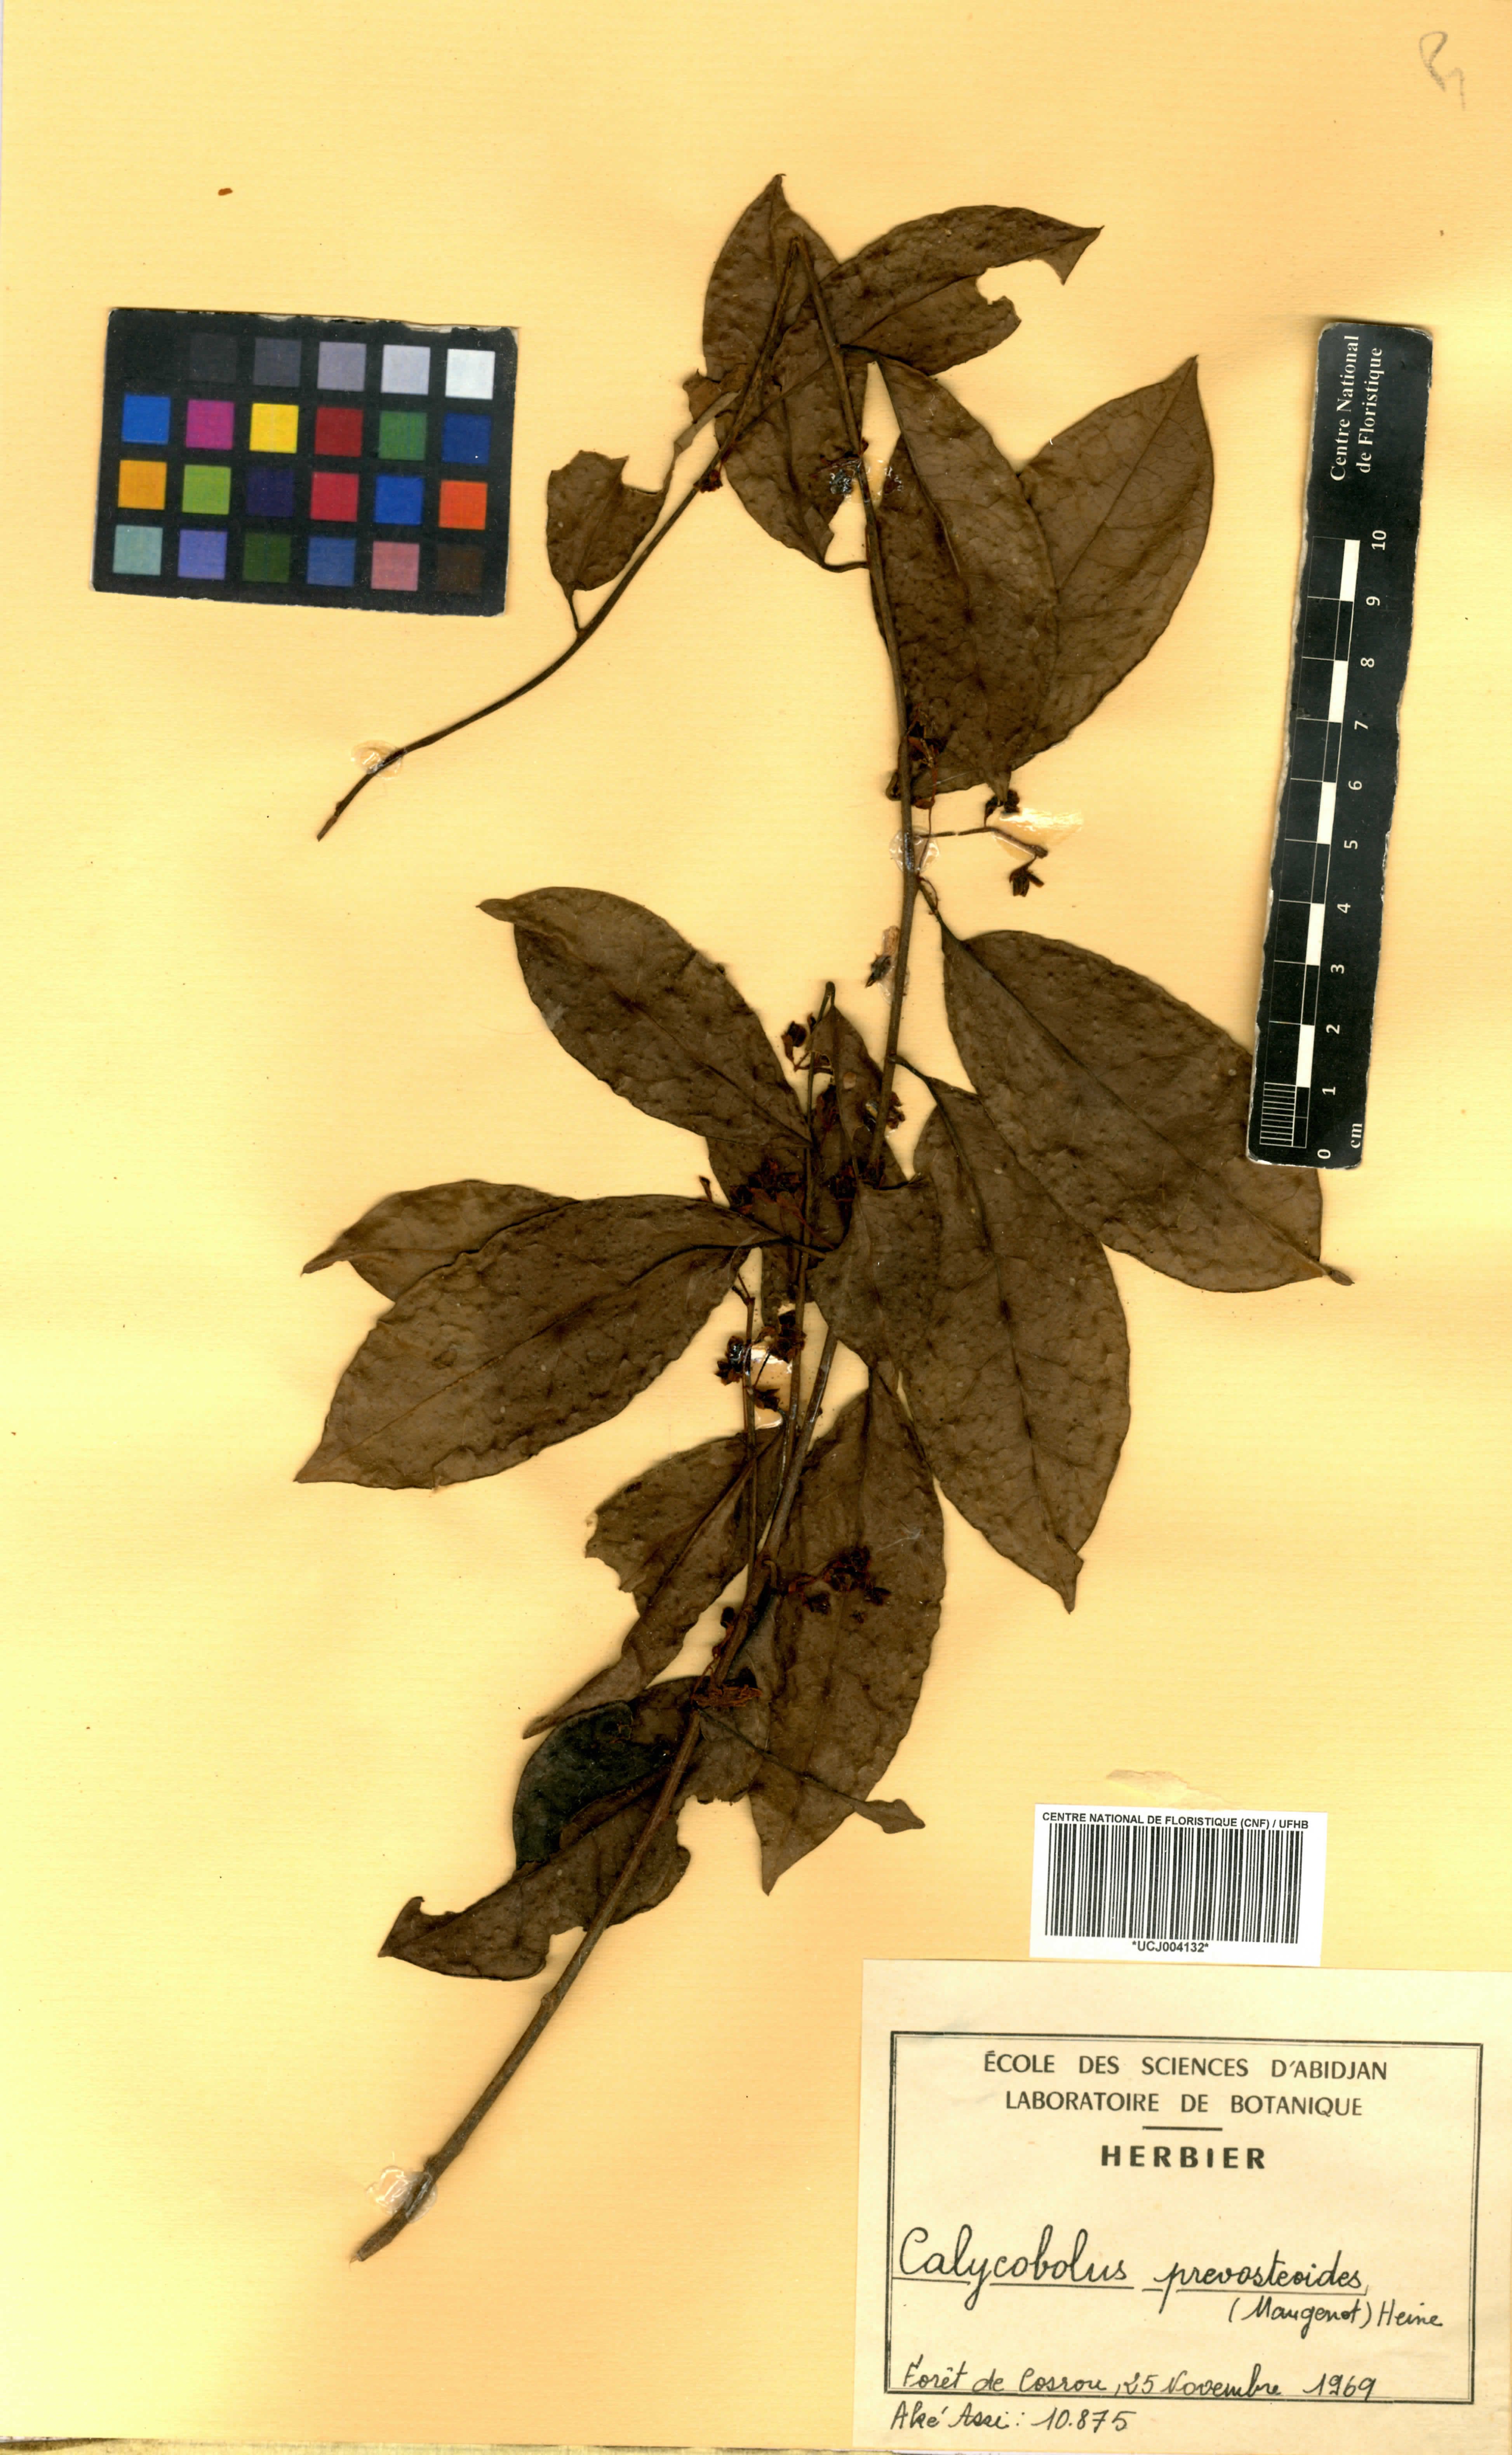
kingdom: Plantae
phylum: Tracheophyta
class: Magnoliopsida
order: Solanales
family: Convolvulaceae
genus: Calycobolus
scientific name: Calycobolus
